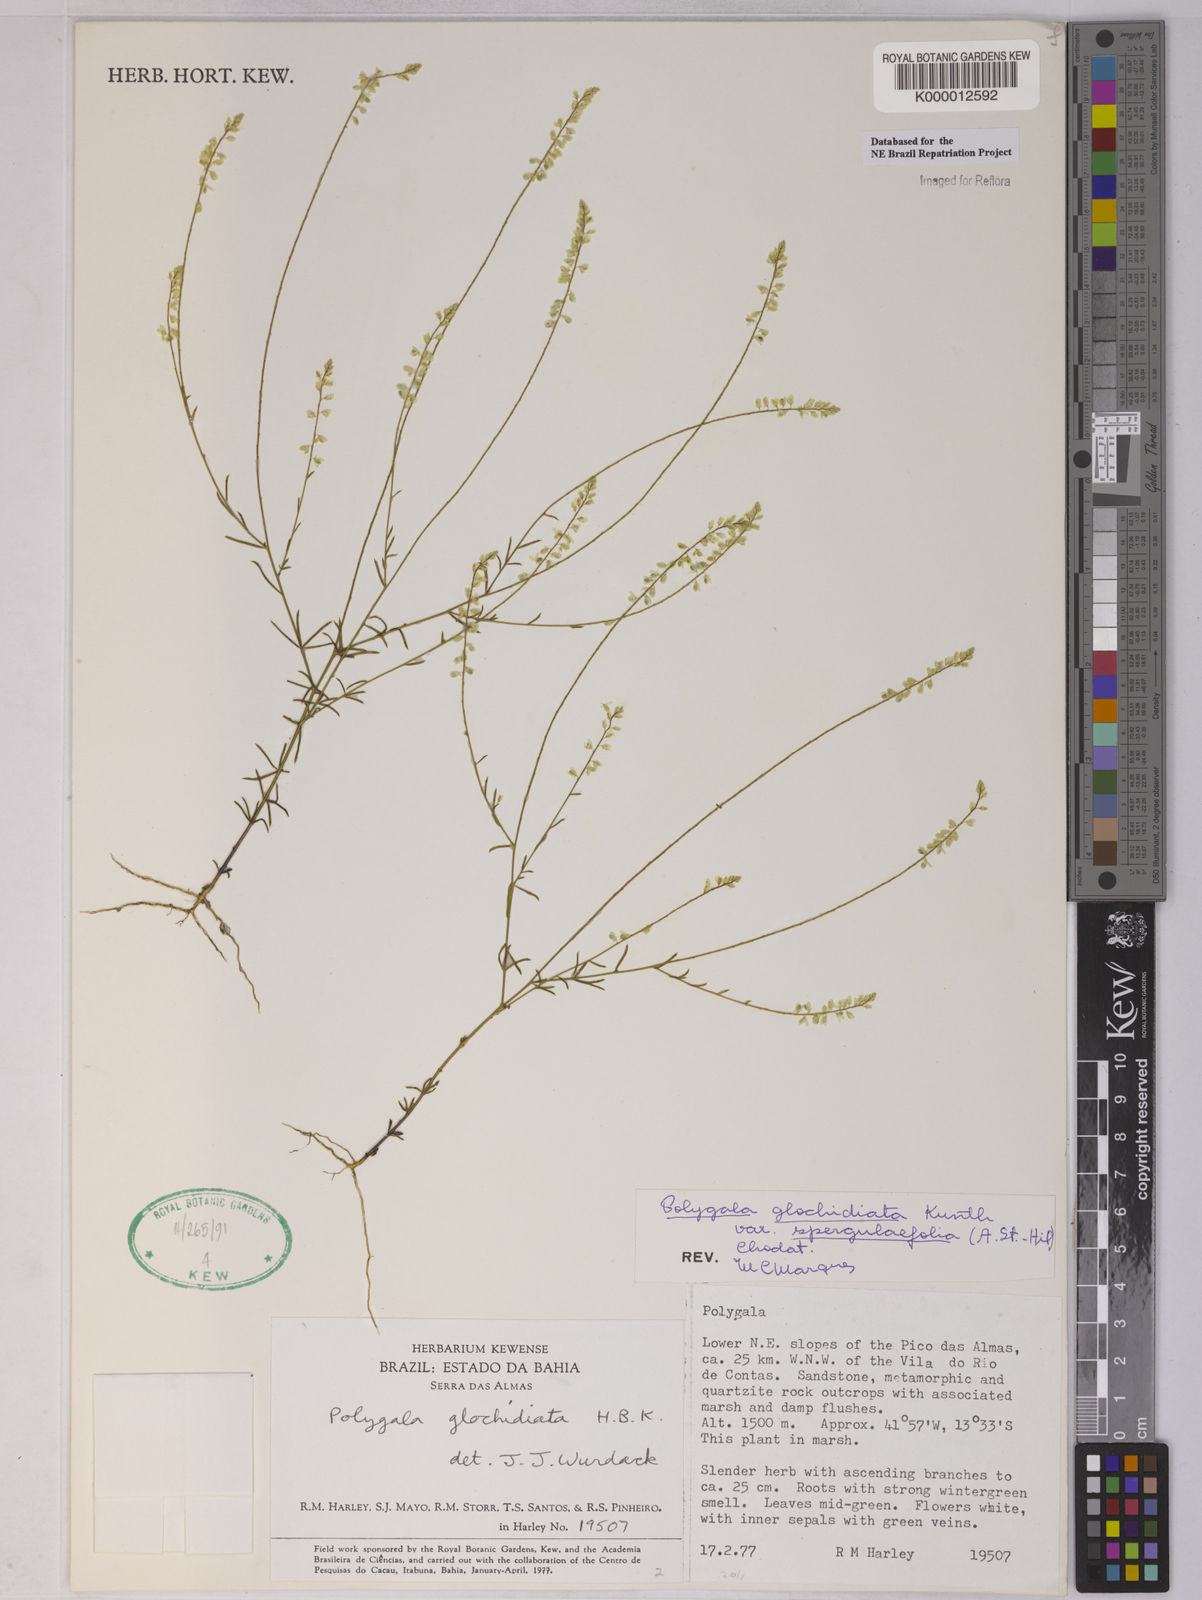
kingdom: Plantae
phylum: Tracheophyta
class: Magnoliopsida
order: Fabales
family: Polygalaceae
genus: Polygala
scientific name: Polygala glochidiata
